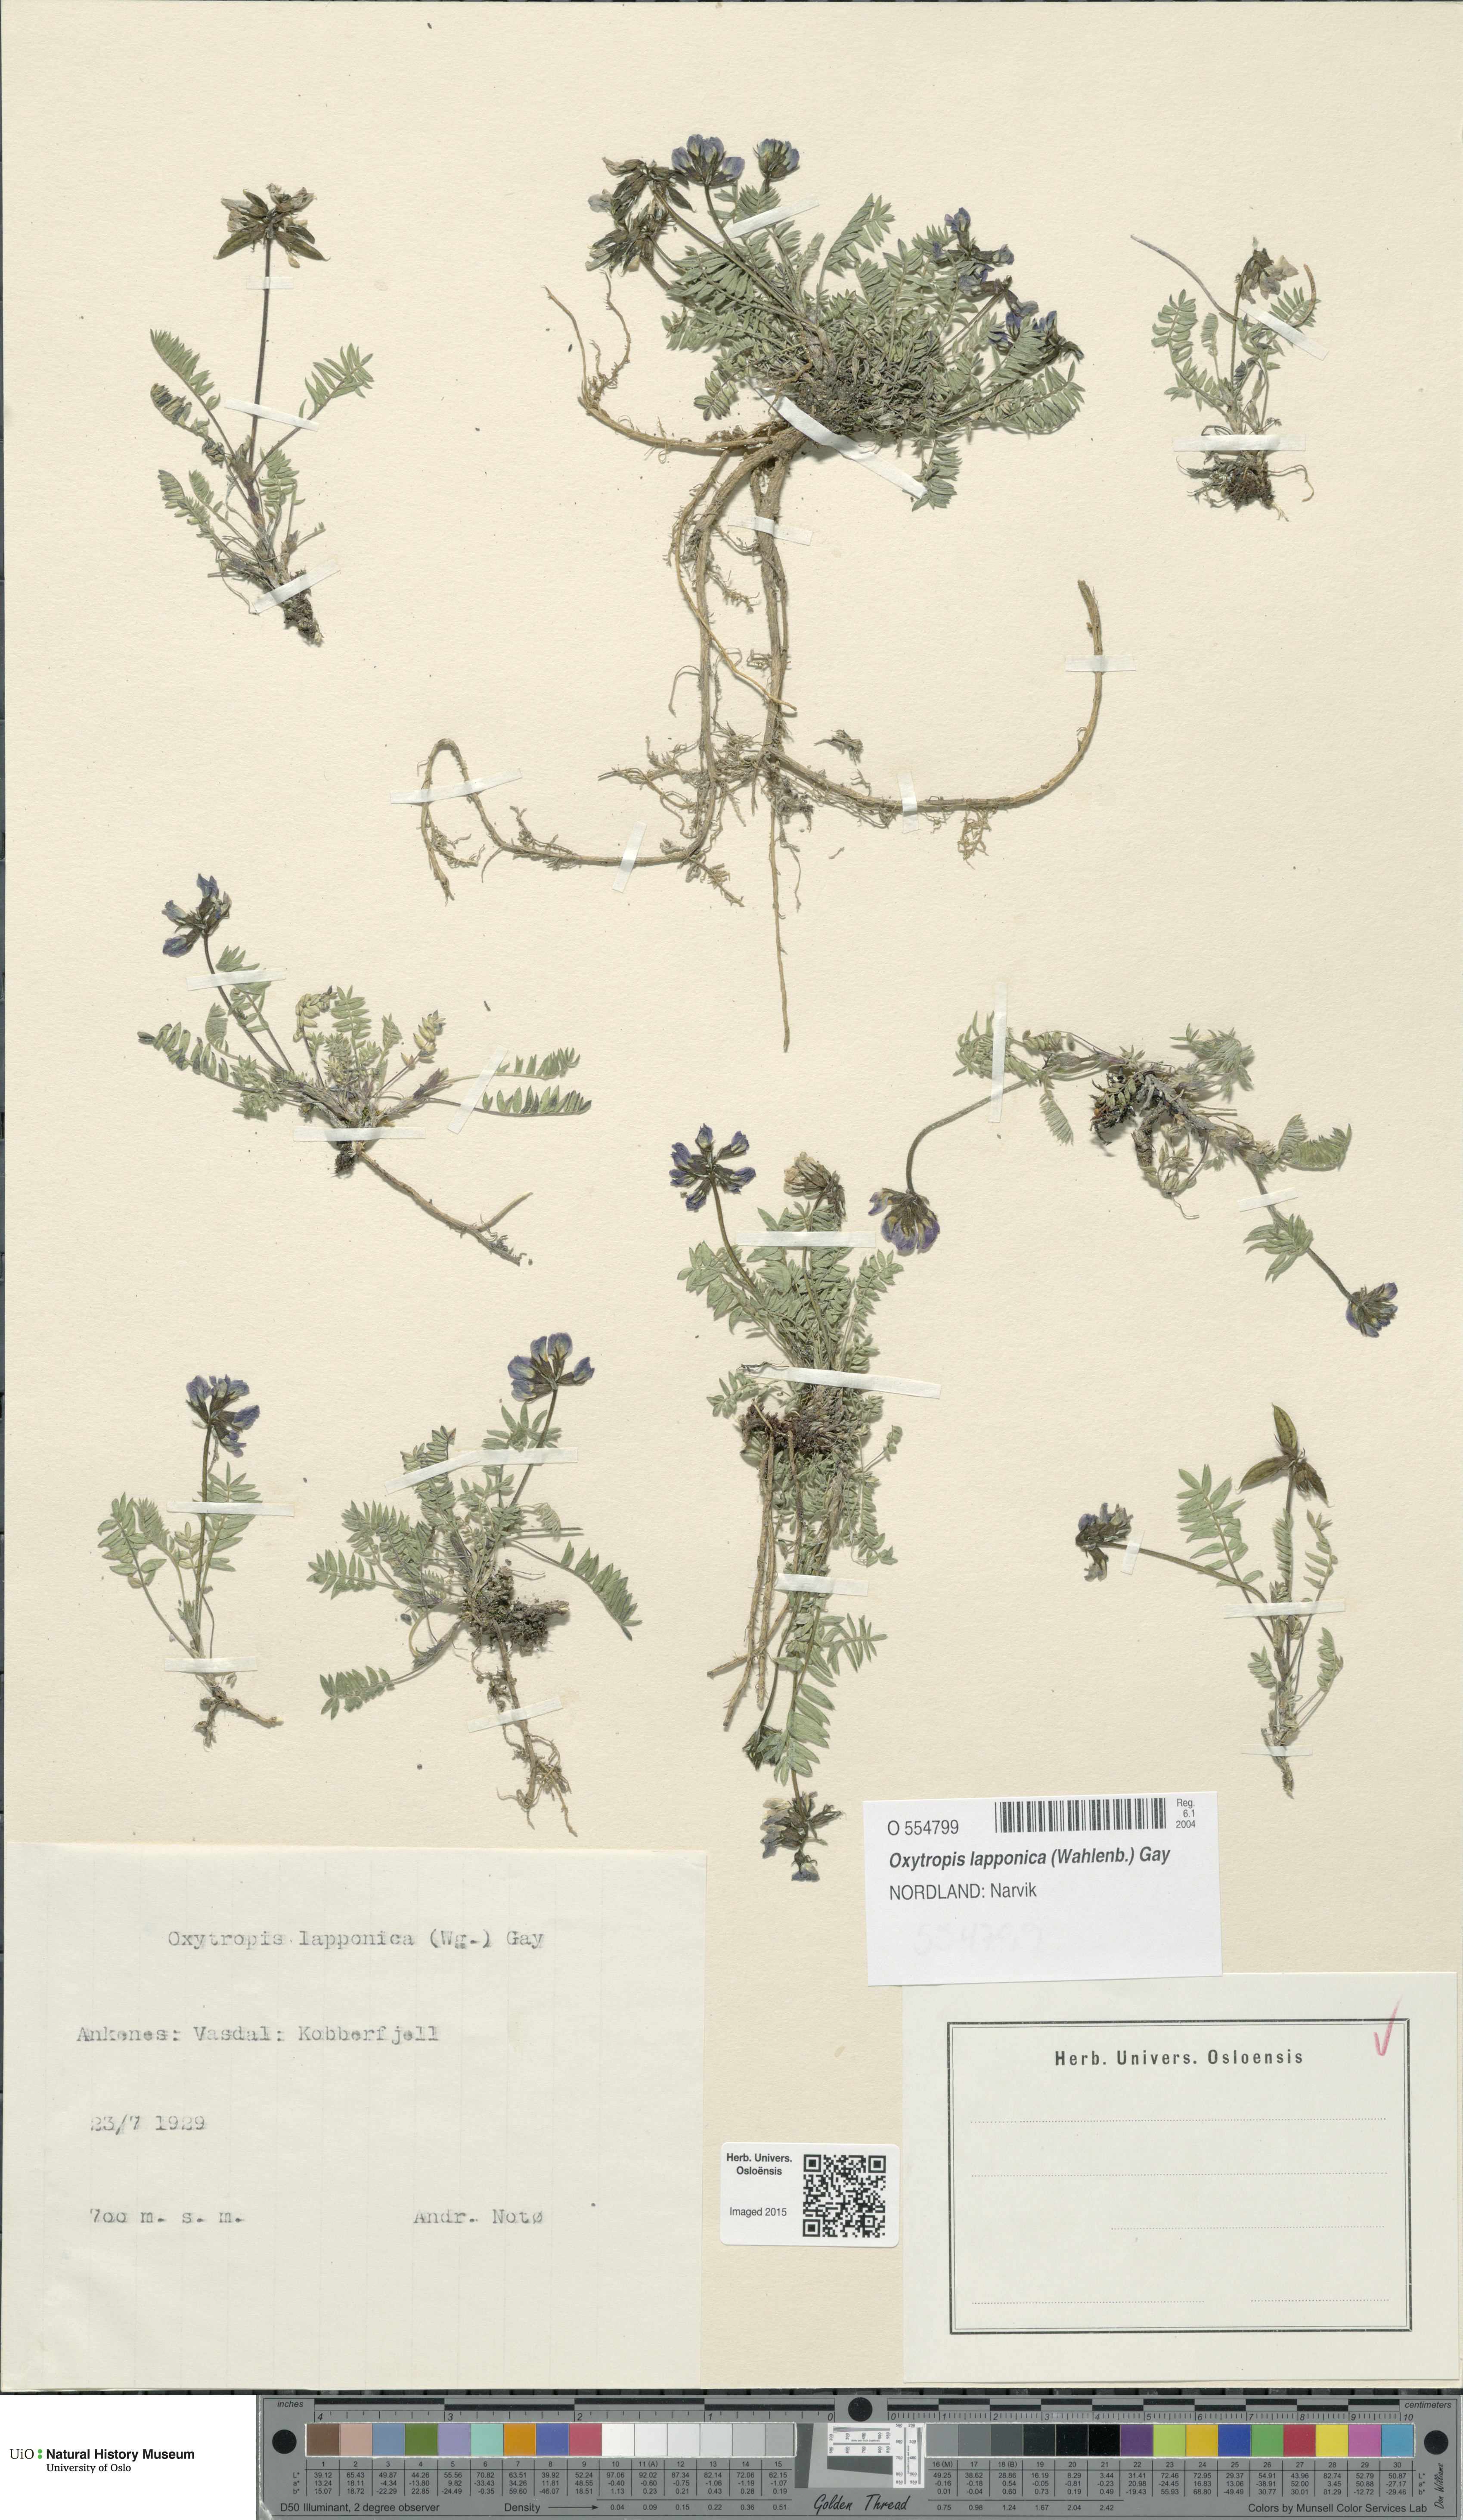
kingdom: Plantae
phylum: Tracheophyta
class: Magnoliopsida
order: Fabales
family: Fabaceae
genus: Oxytropis
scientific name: Oxytropis lapponica
